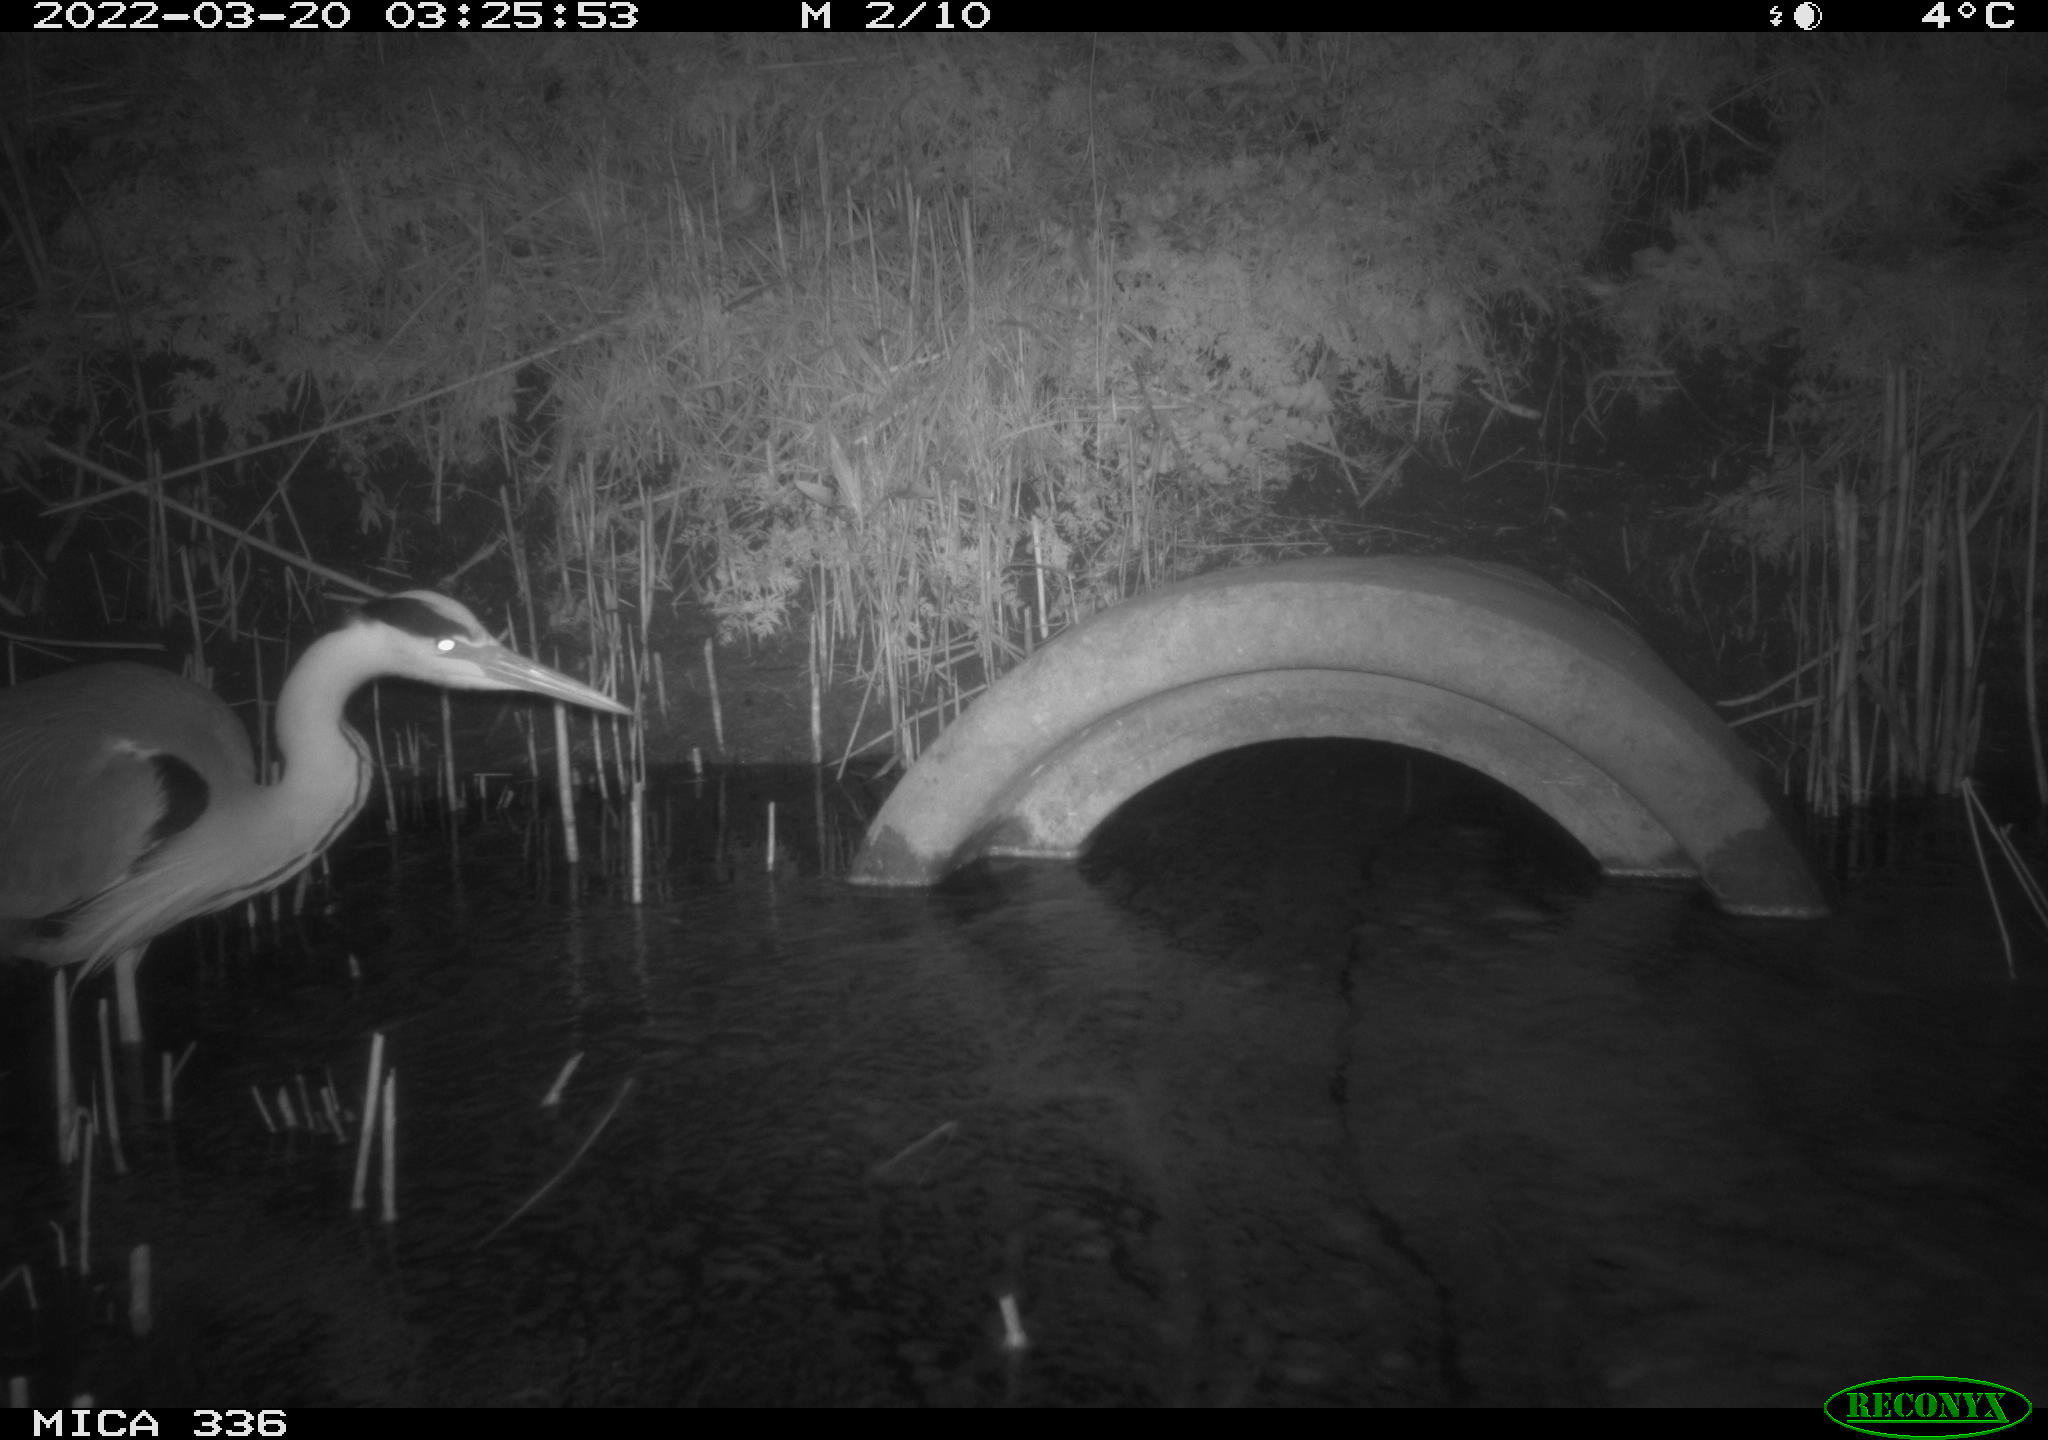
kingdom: Animalia
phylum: Chordata
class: Aves
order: Pelecaniformes
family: Ardeidae
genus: Ardea
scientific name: Ardea cinerea
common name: Grey heron
